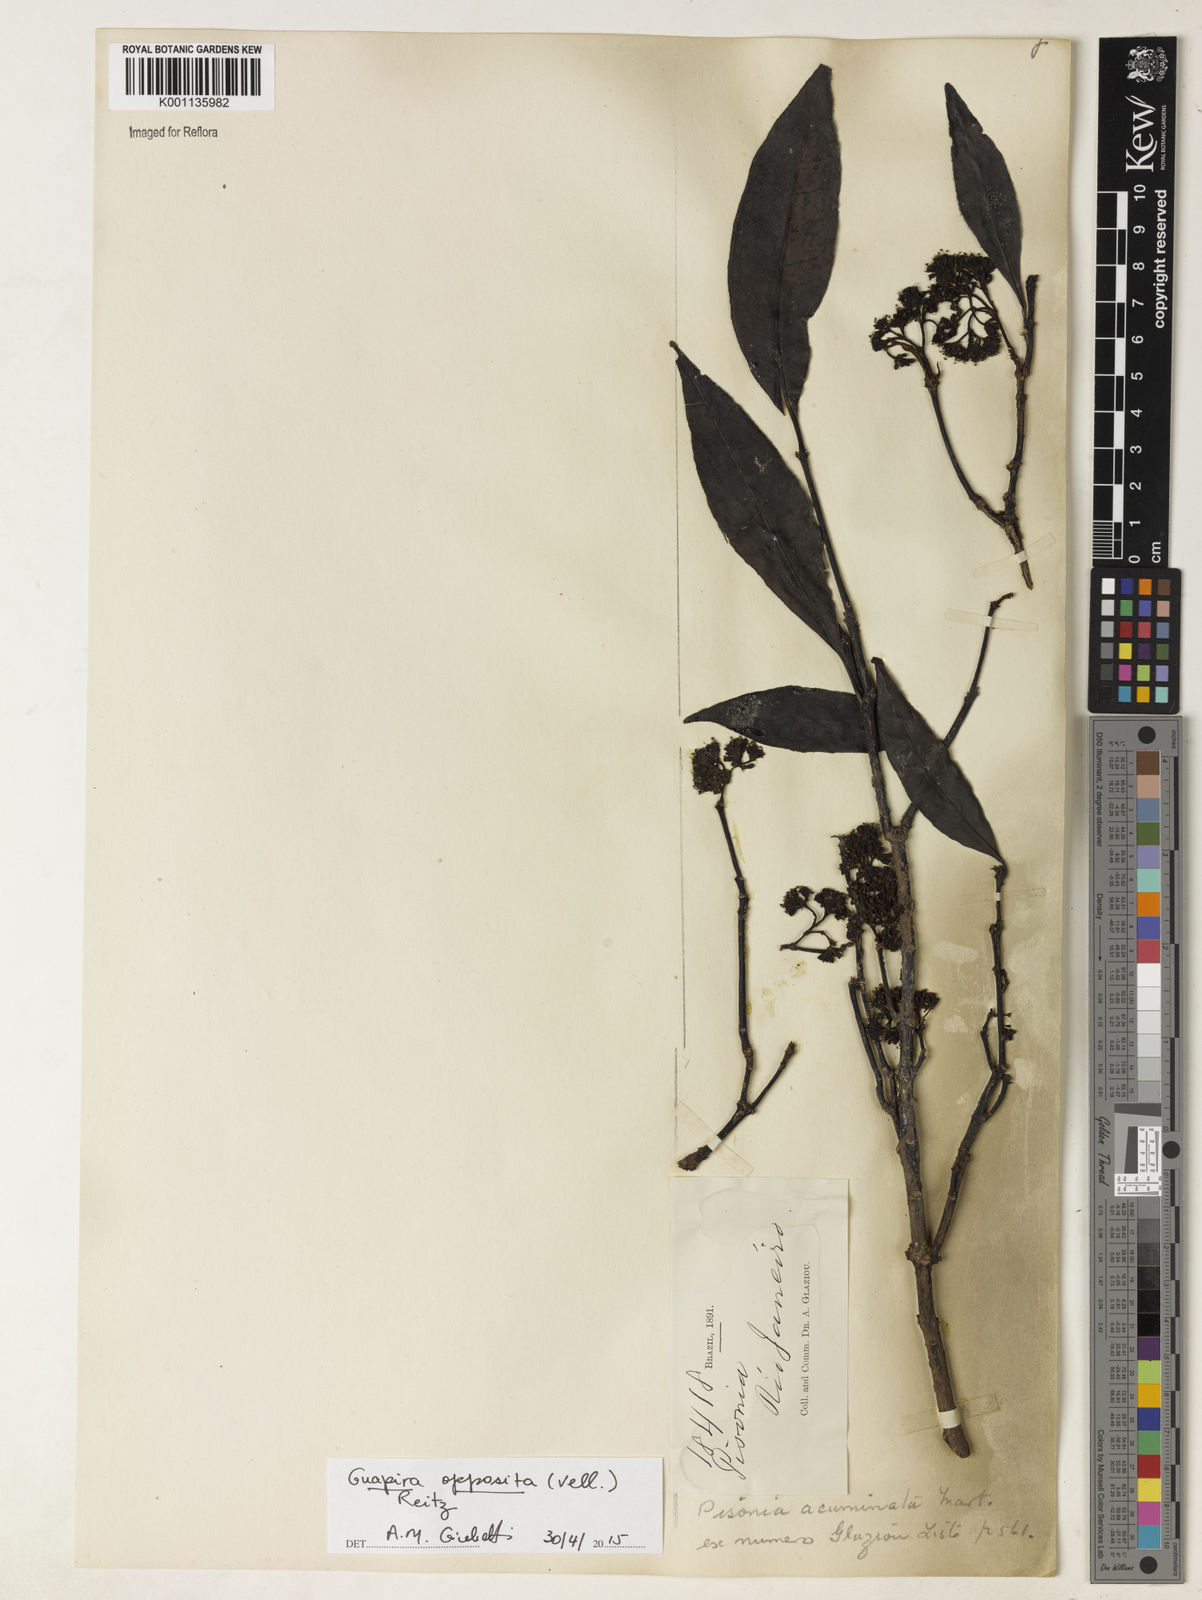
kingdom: Plantae
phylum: Tracheophyta
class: Magnoliopsida
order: Caryophyllales
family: Nyctaginaceae
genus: Guapira
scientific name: Guapira opposita
